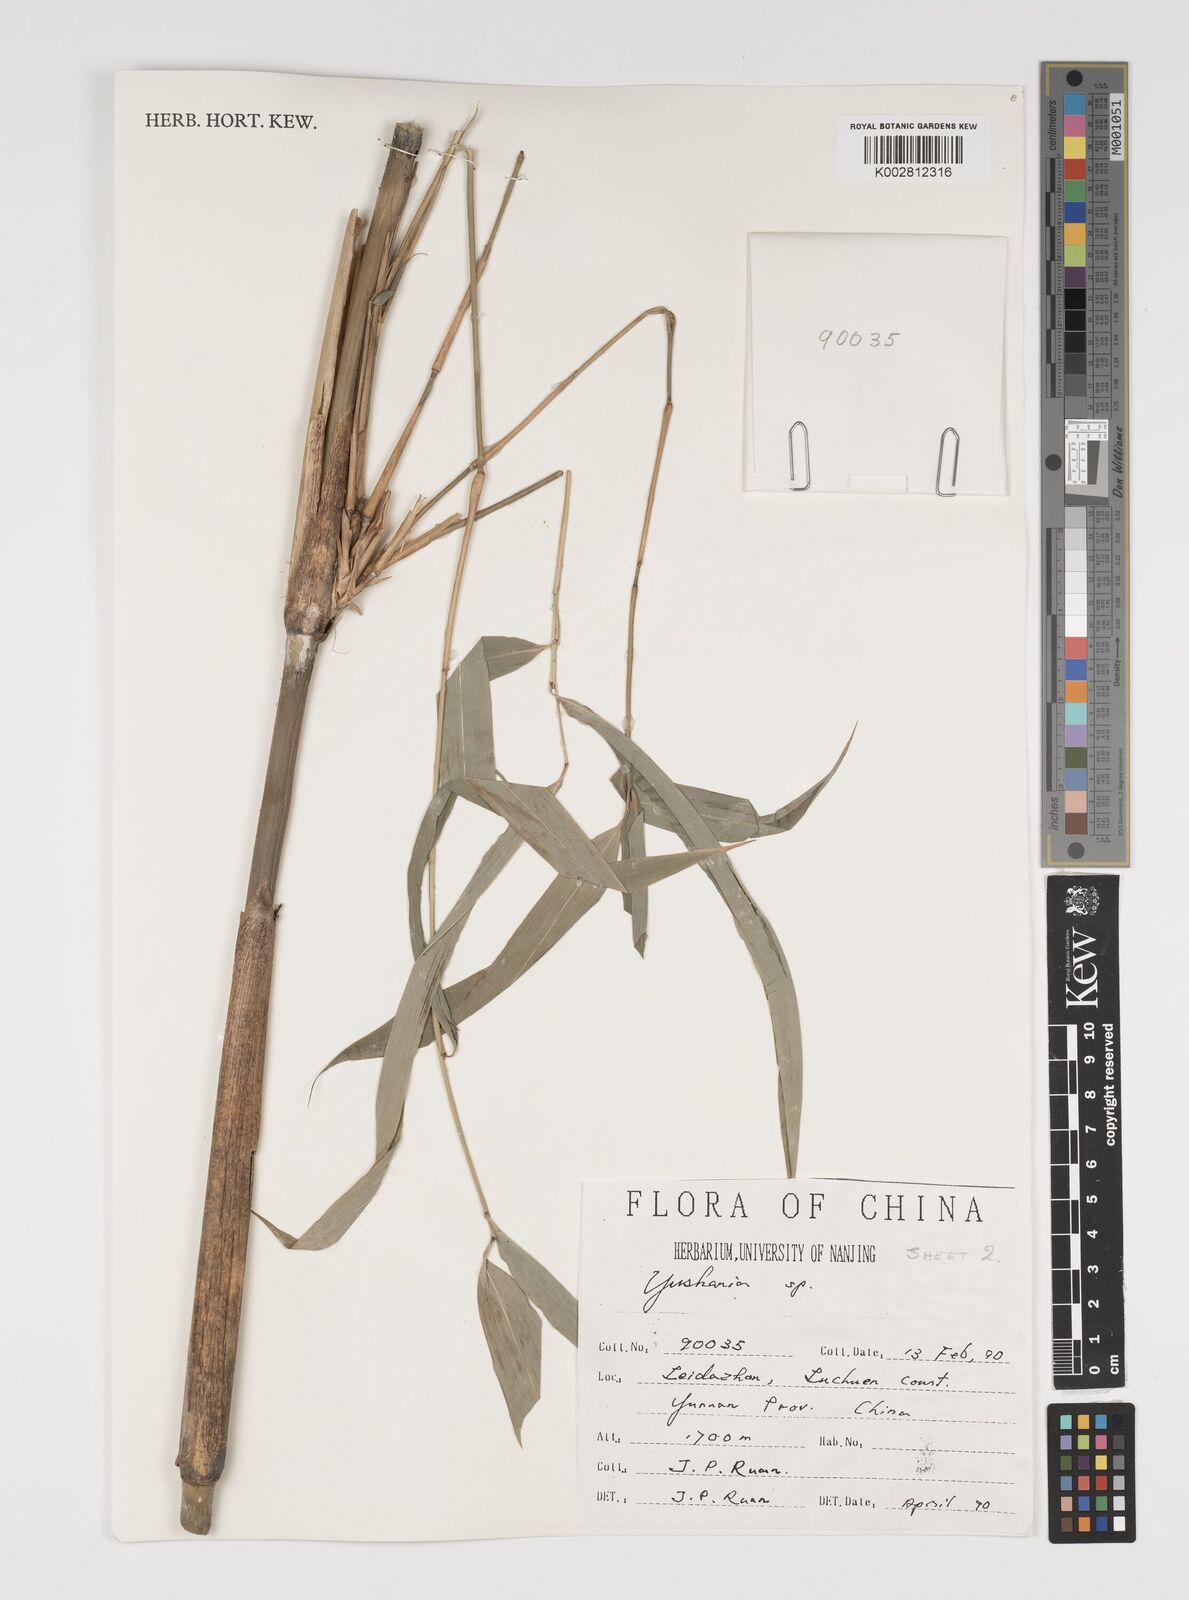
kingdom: Plantae
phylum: Tracheophyta
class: Liliopsida
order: Poales
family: Poaceae
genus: Yushania
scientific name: Yushania
